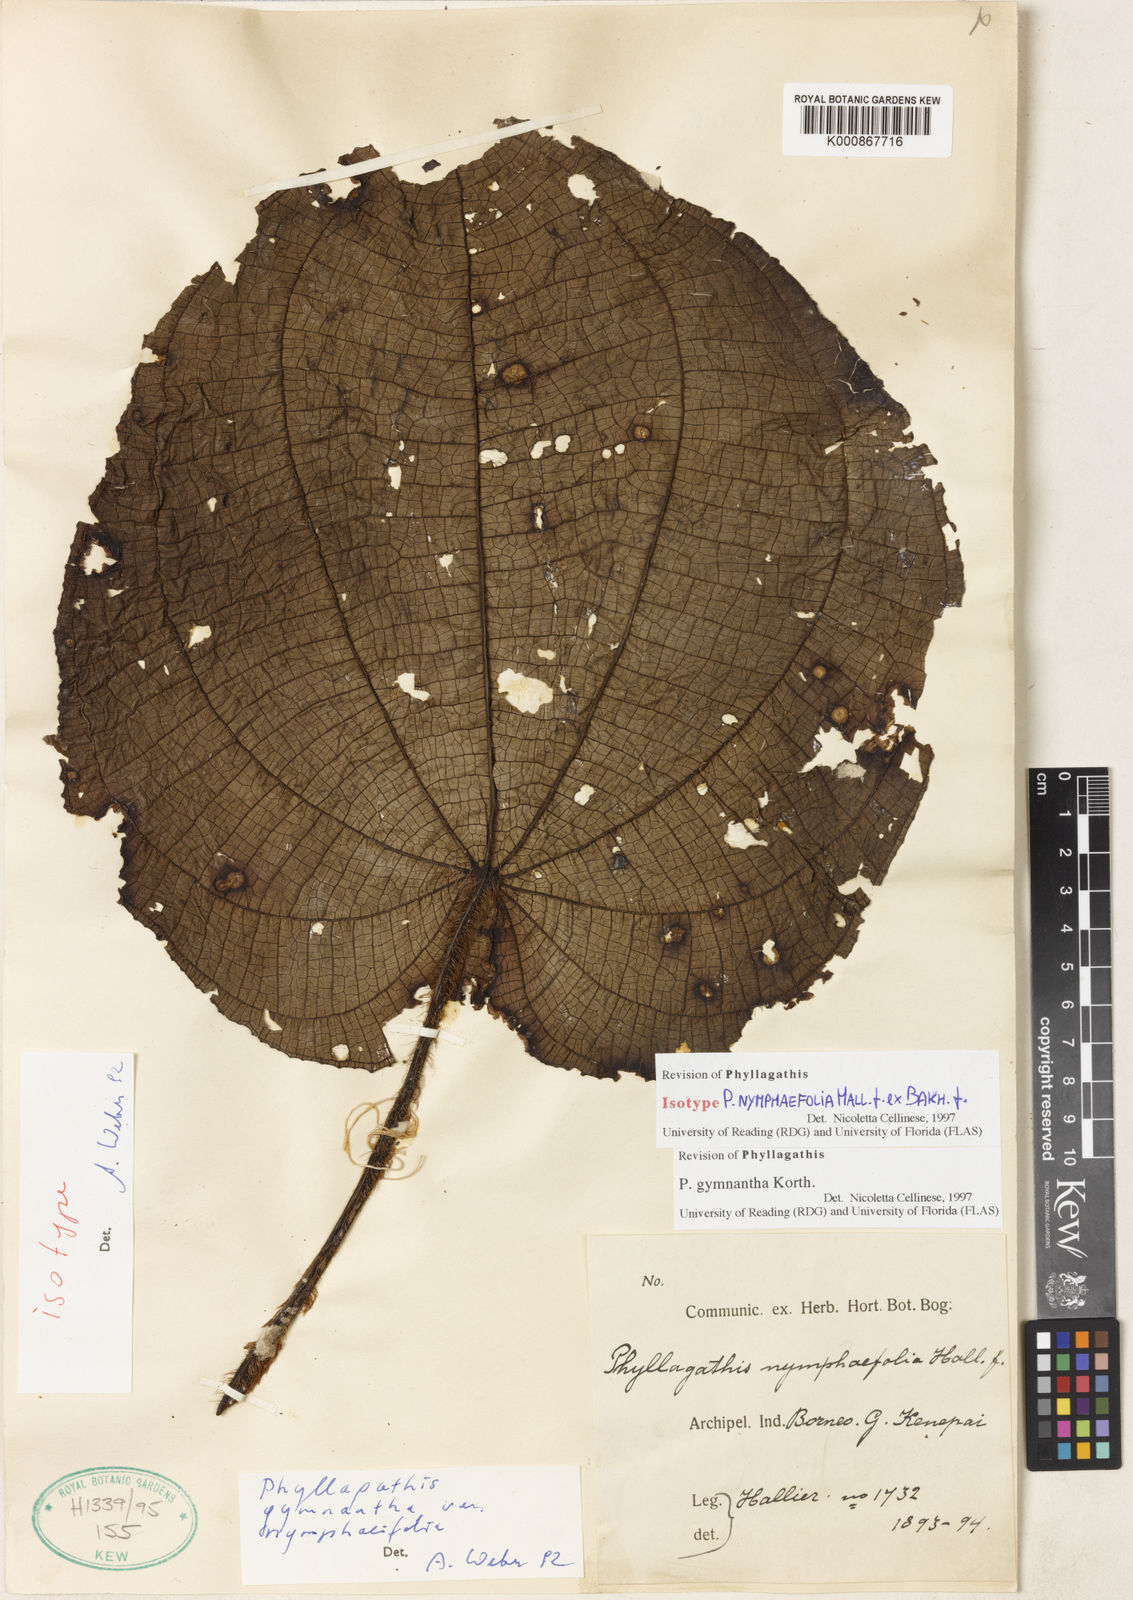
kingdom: Plantae
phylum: Tracheophyta
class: Magnoliopsida
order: Myrtales
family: Melastomataceae
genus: Phyllagathis
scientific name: Phyllagathis gymnantha
